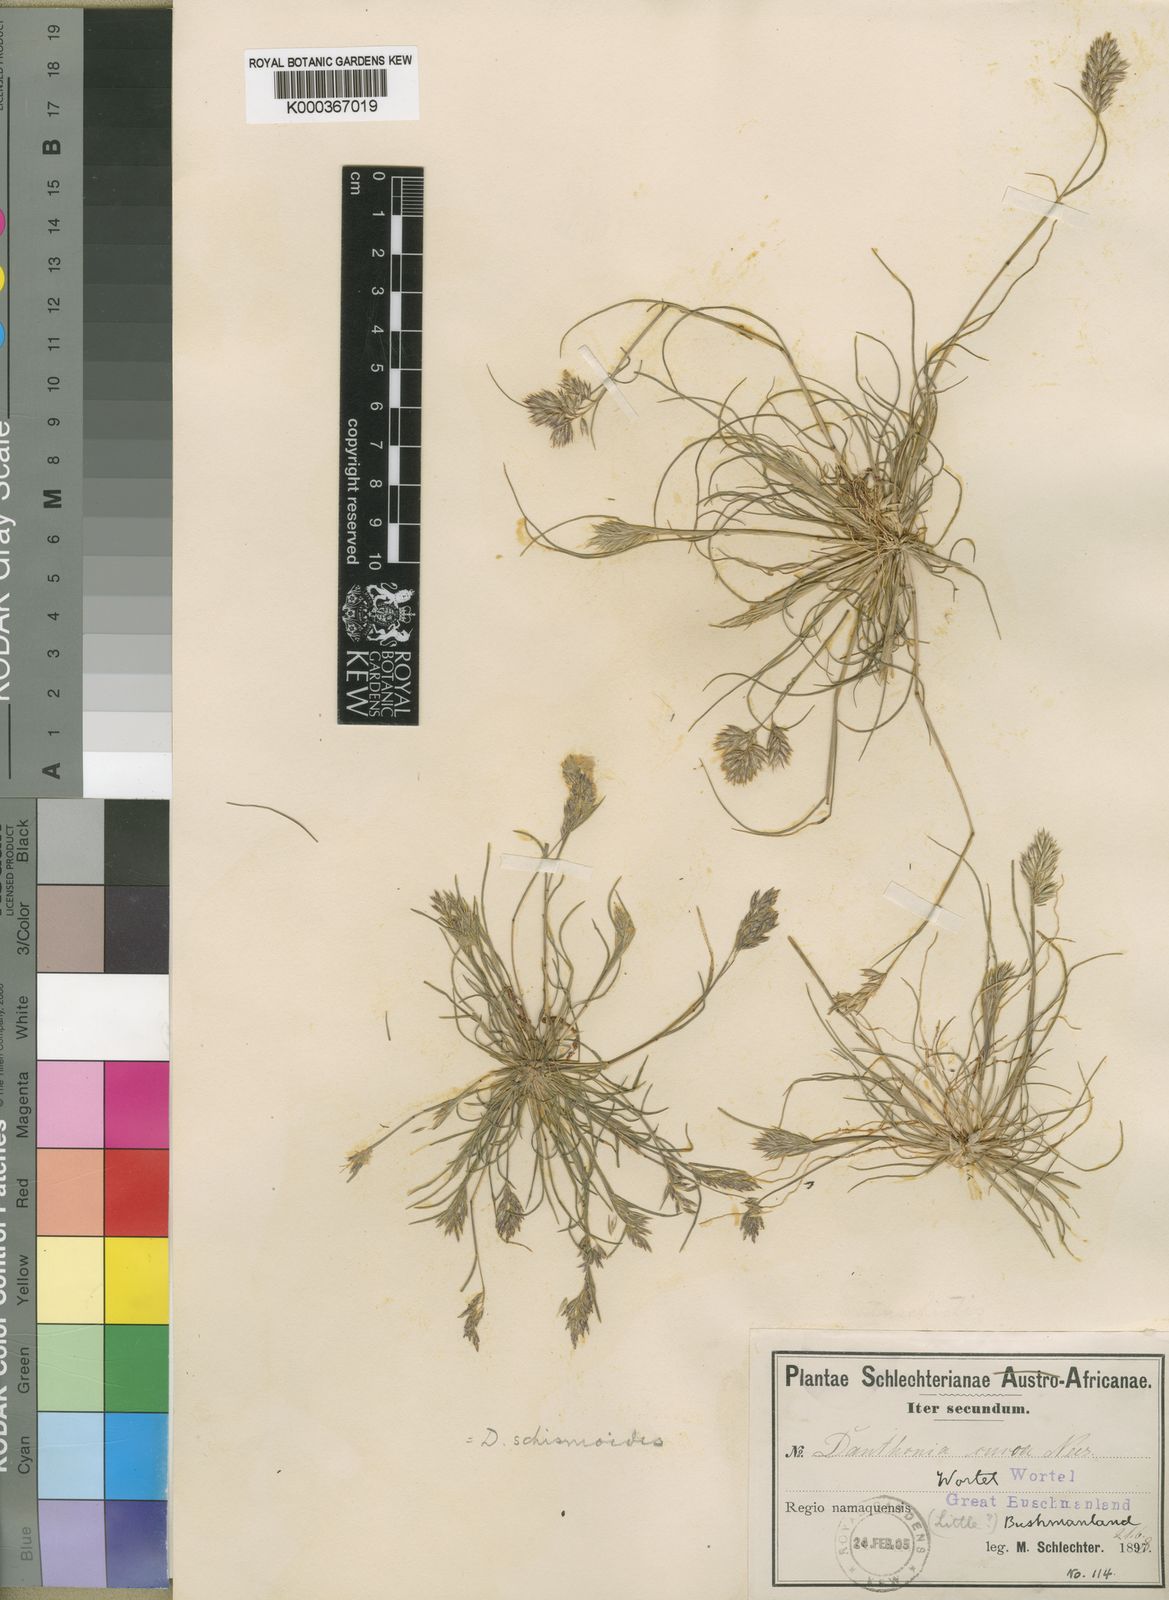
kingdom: Plantae
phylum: Tracheophyta
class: Liliopsida
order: Poales
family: Poaceae
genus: Rytidosperma
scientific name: Rytidosperma
